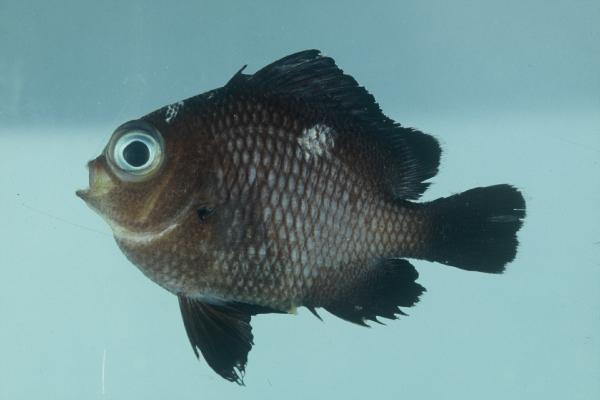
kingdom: Animalia
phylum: Chordata
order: Perciformes
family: Pomacentridae
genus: Dascyllus
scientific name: Dascyllus trimaculatus
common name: Threespot dascyllus
